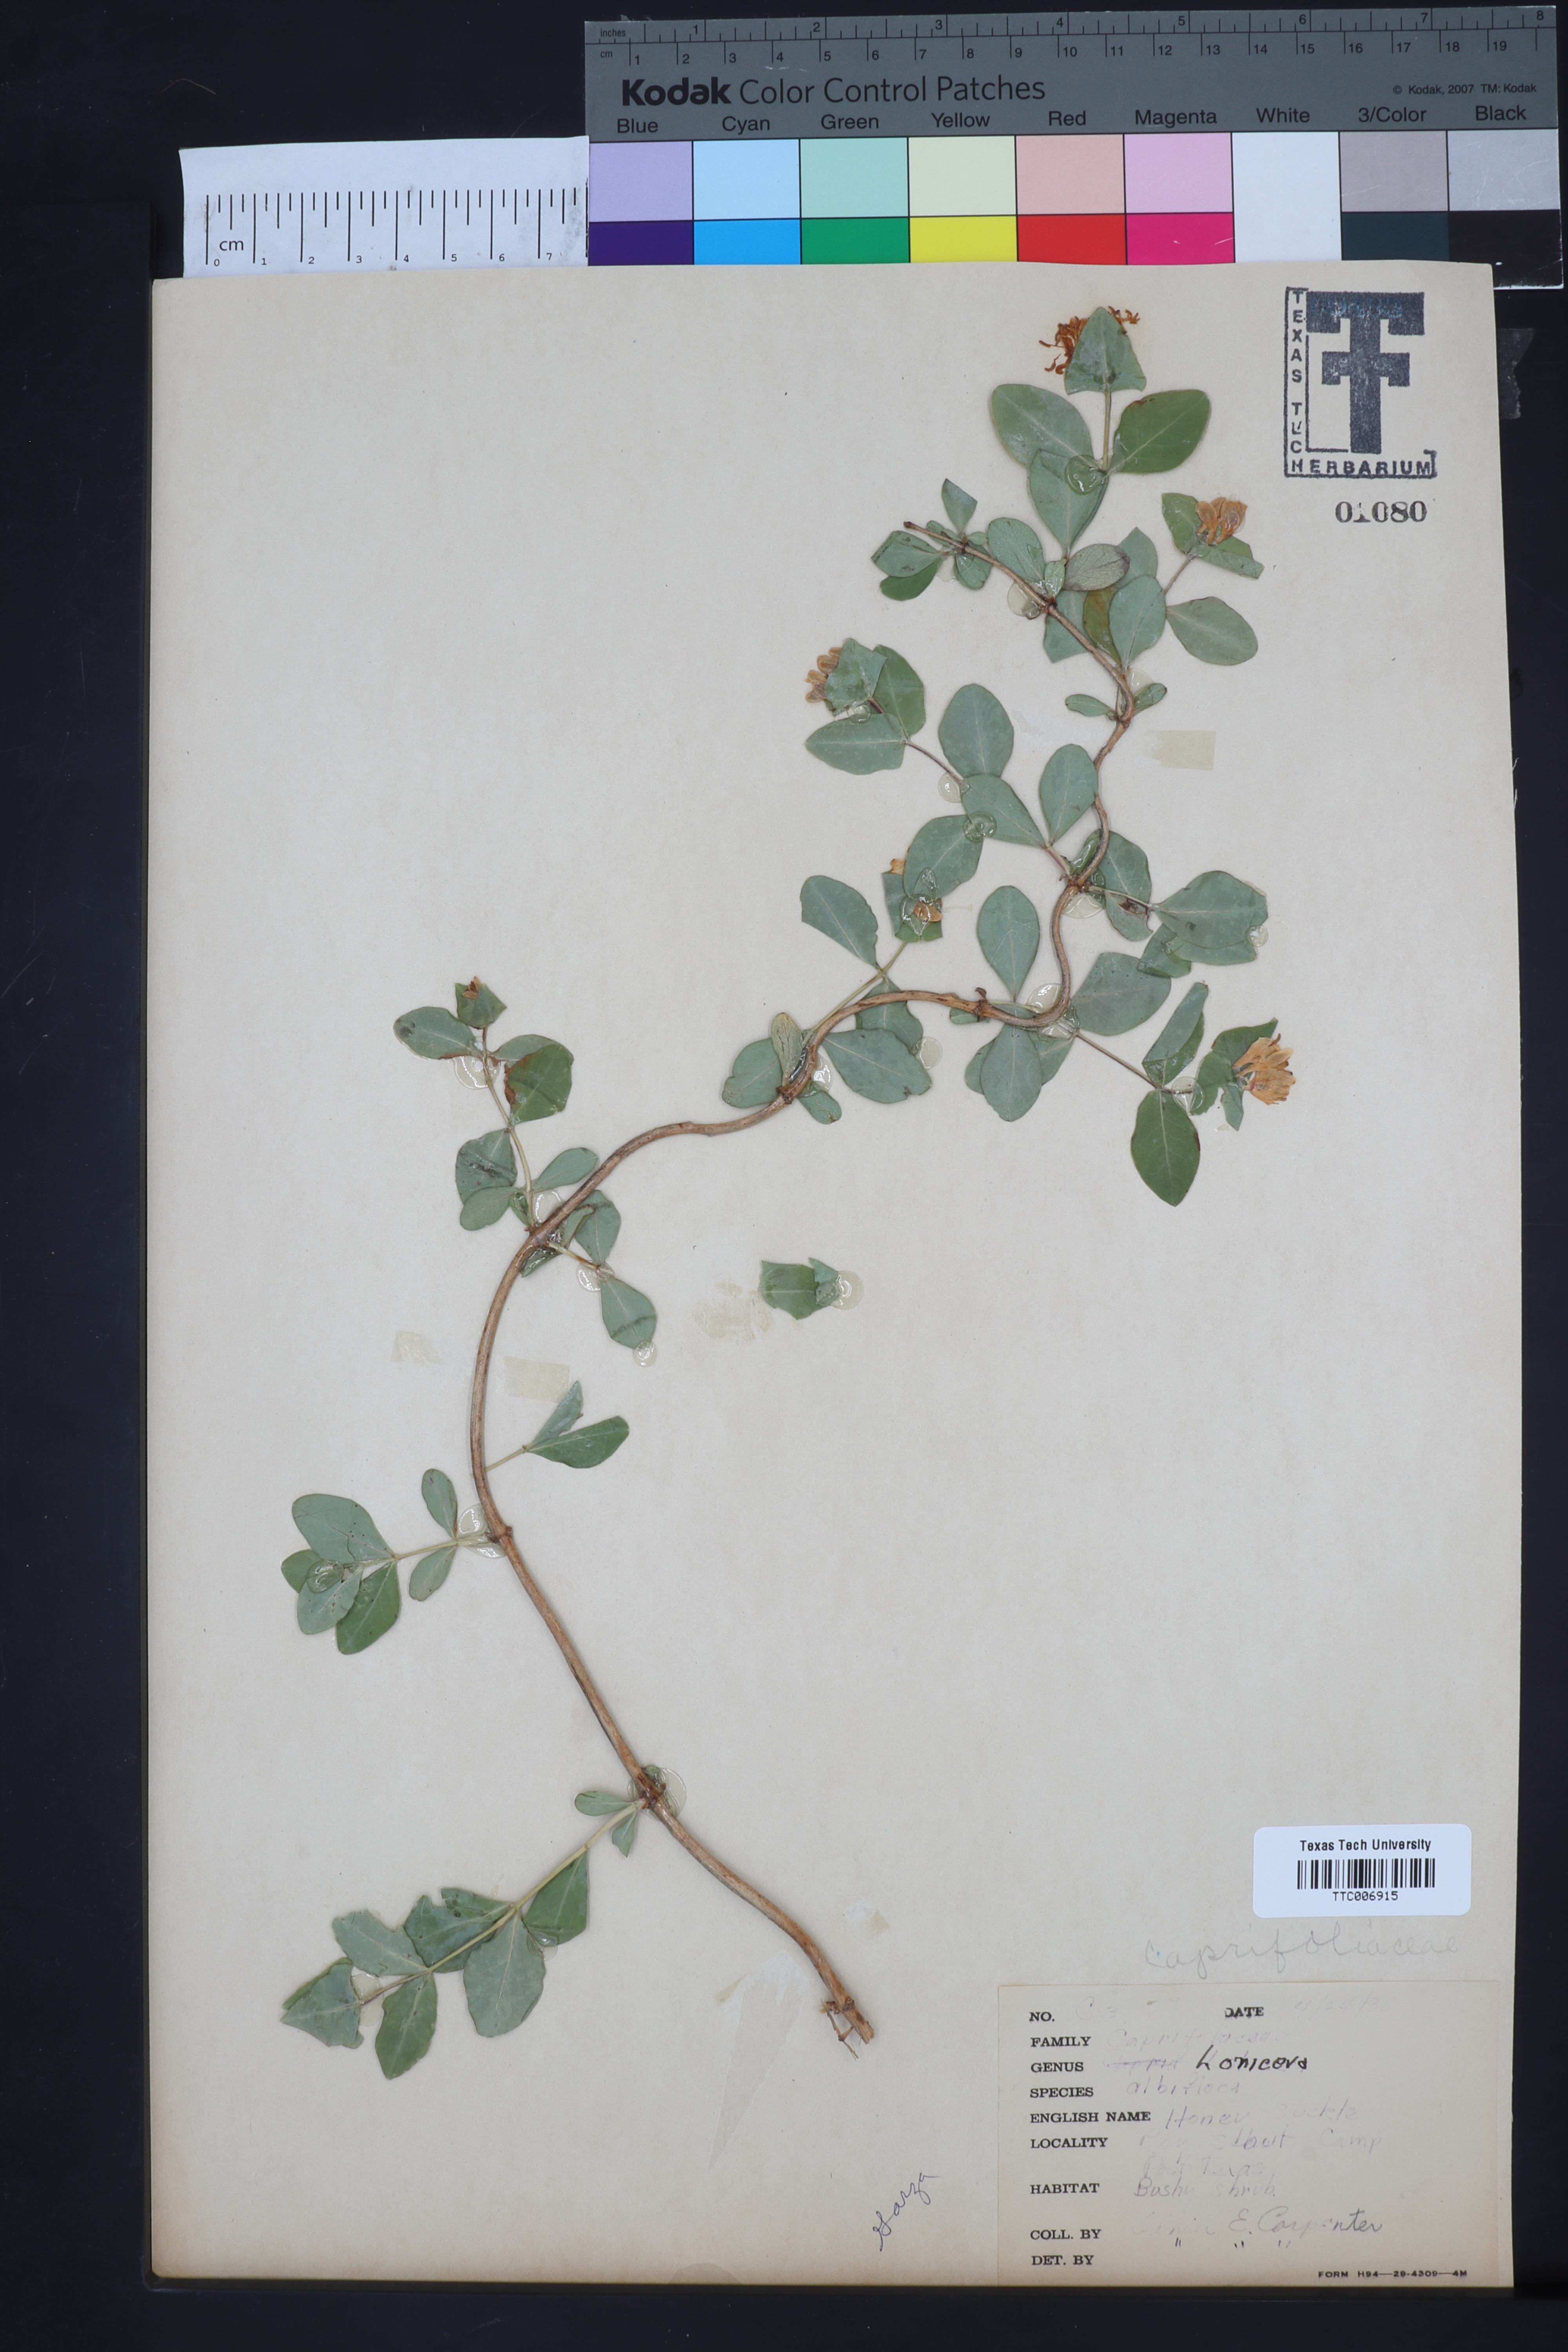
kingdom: Plantae
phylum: Tracheophyta
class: Magnoliopsida
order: Dipsacales
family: Caprifoliaceae
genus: Lonicera
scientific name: Lonicera albiflora
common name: White honeysuckle
